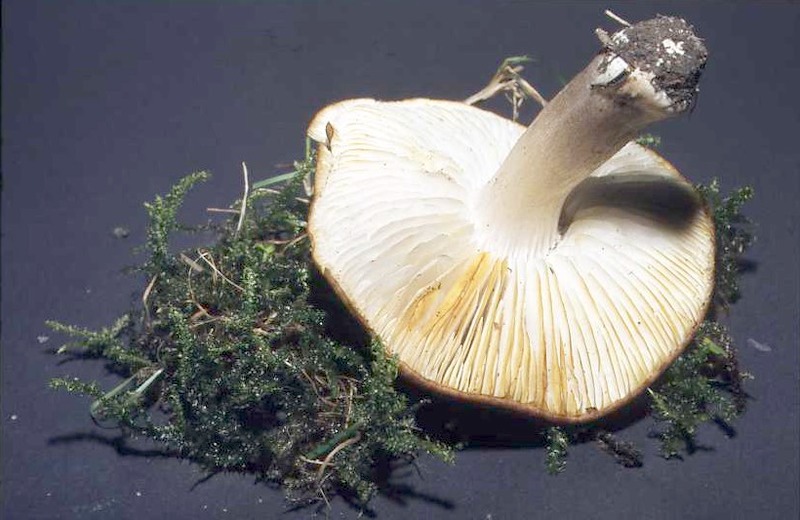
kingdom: Fungi
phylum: Basidiomycota
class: Agaricomycetes
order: Agaricales
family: Tricholomataceae
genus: Tricholoma
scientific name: Tricholoma scalpturatum
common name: Yellowing knight
